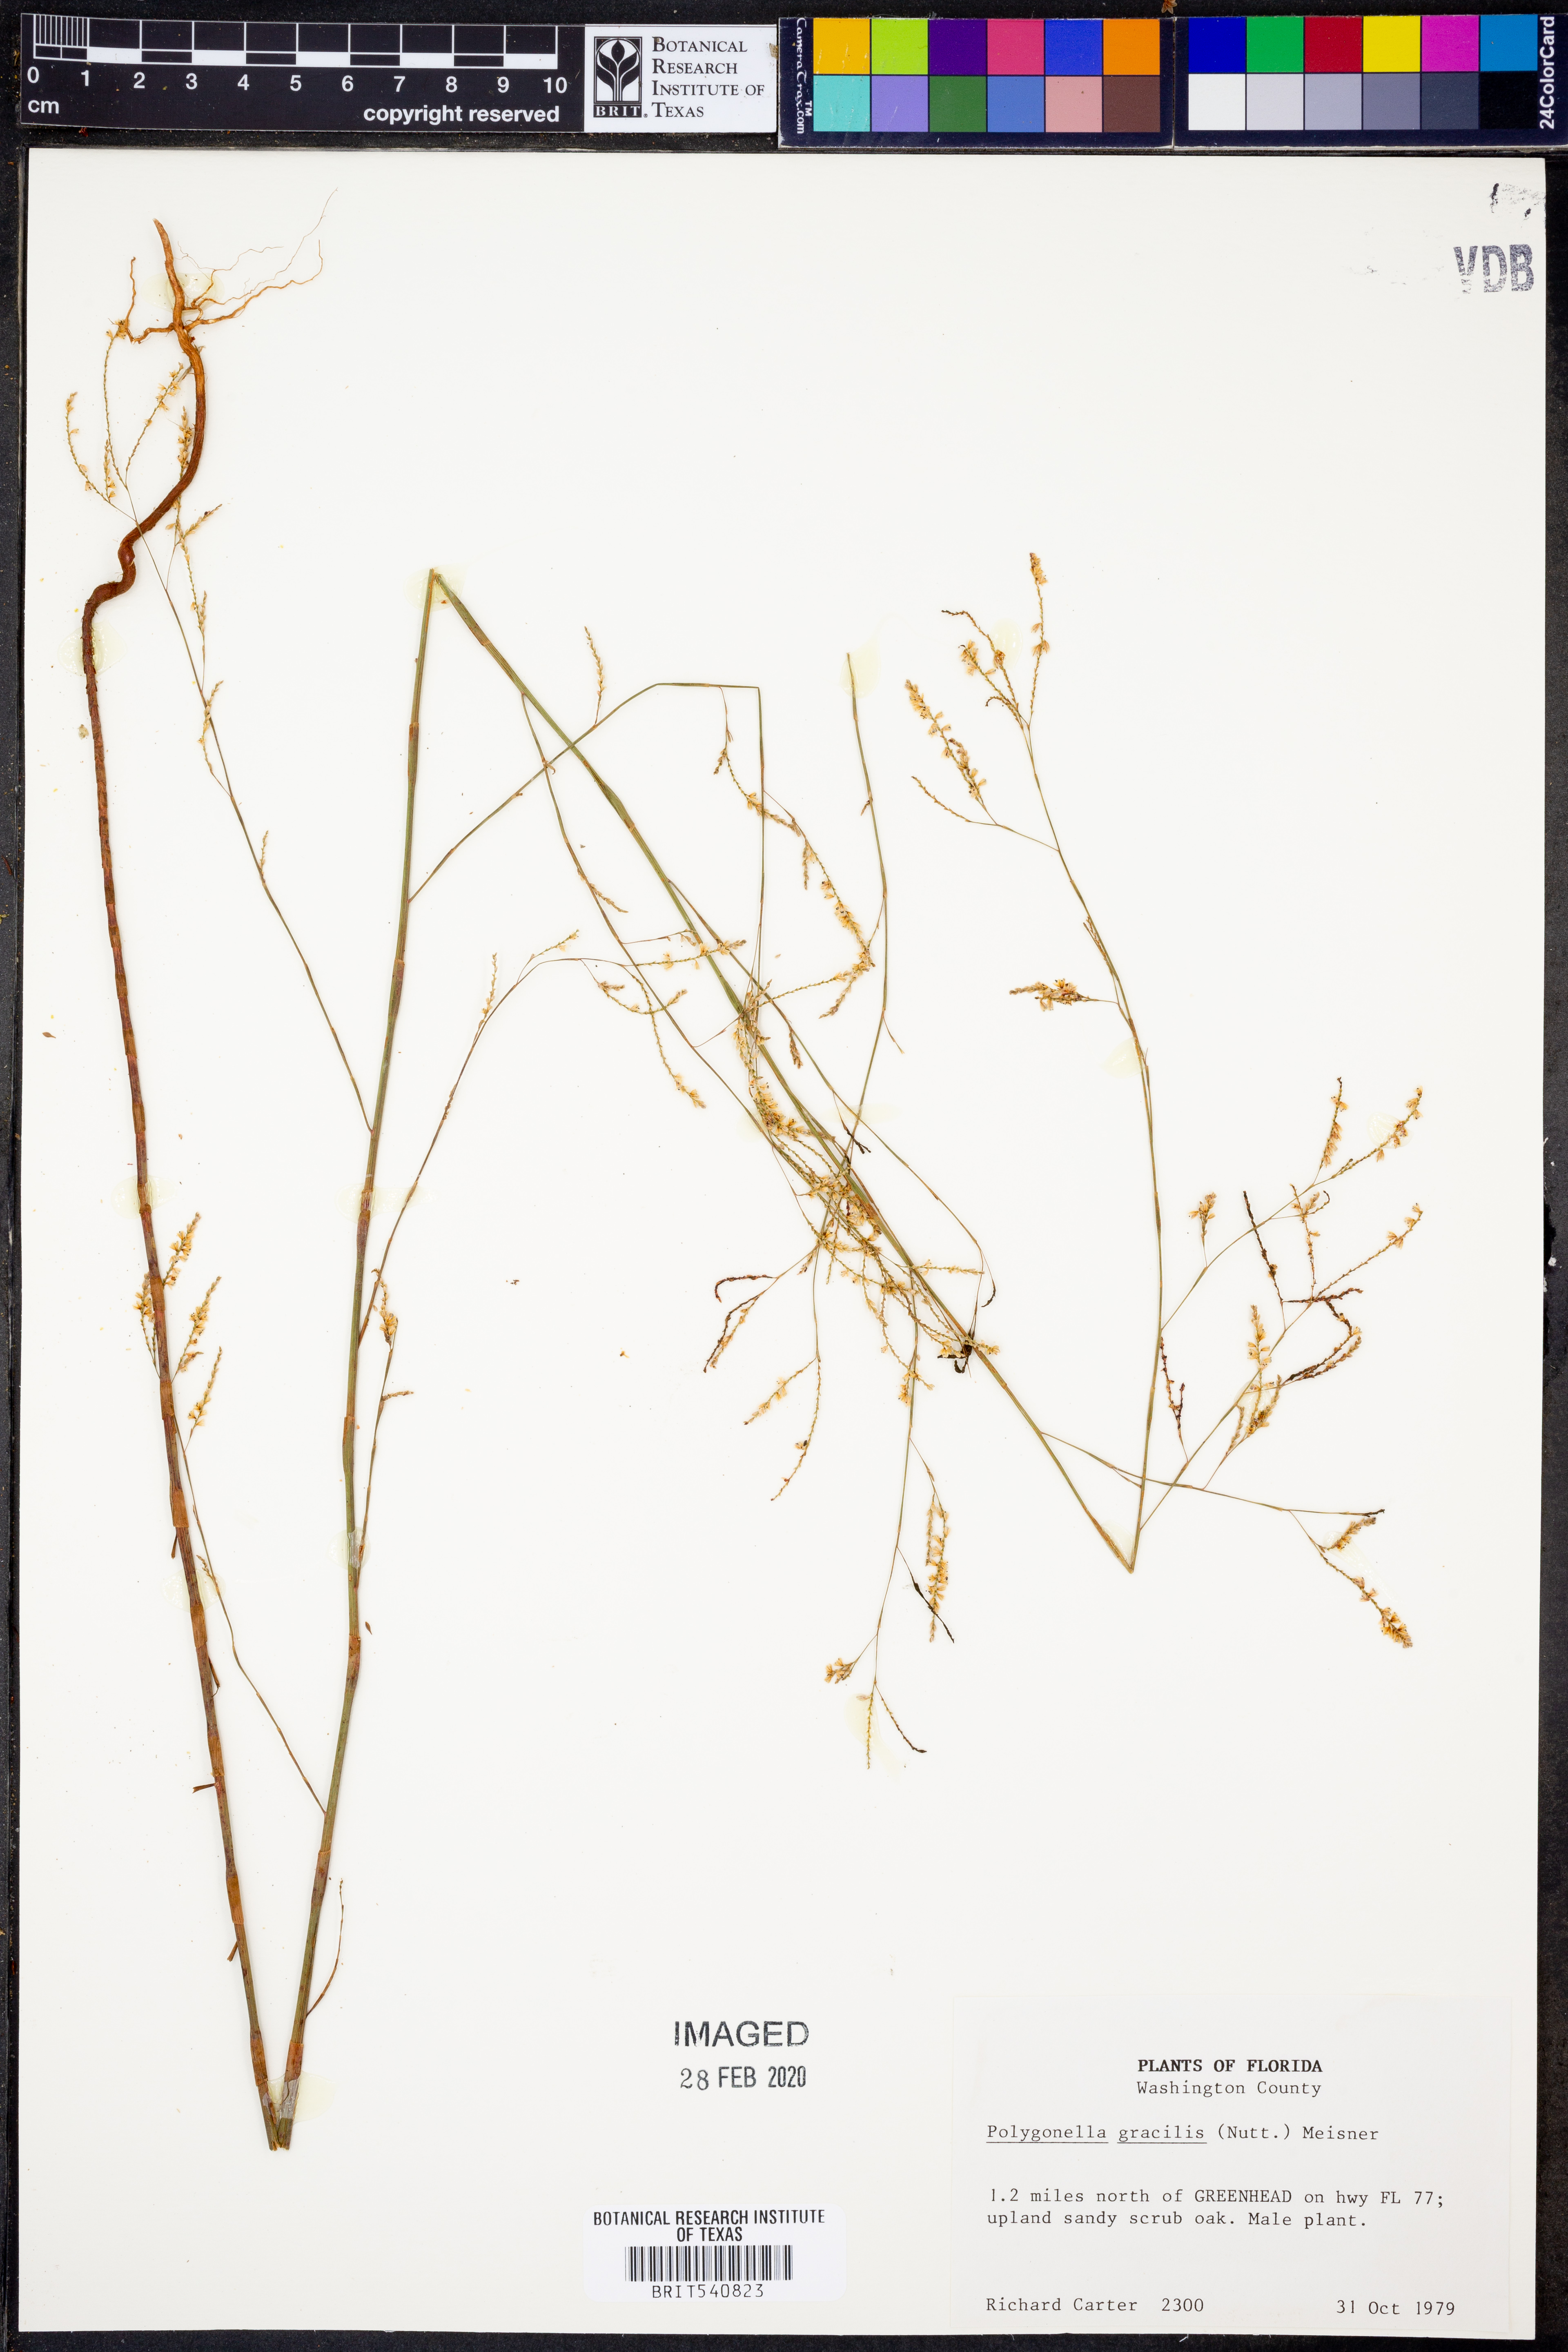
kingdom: Plantae
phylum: Tracheophyta
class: Magnoliopsida
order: Caryophyllales
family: Polygonaceae
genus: Polygonella
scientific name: Polygonella gracilis
